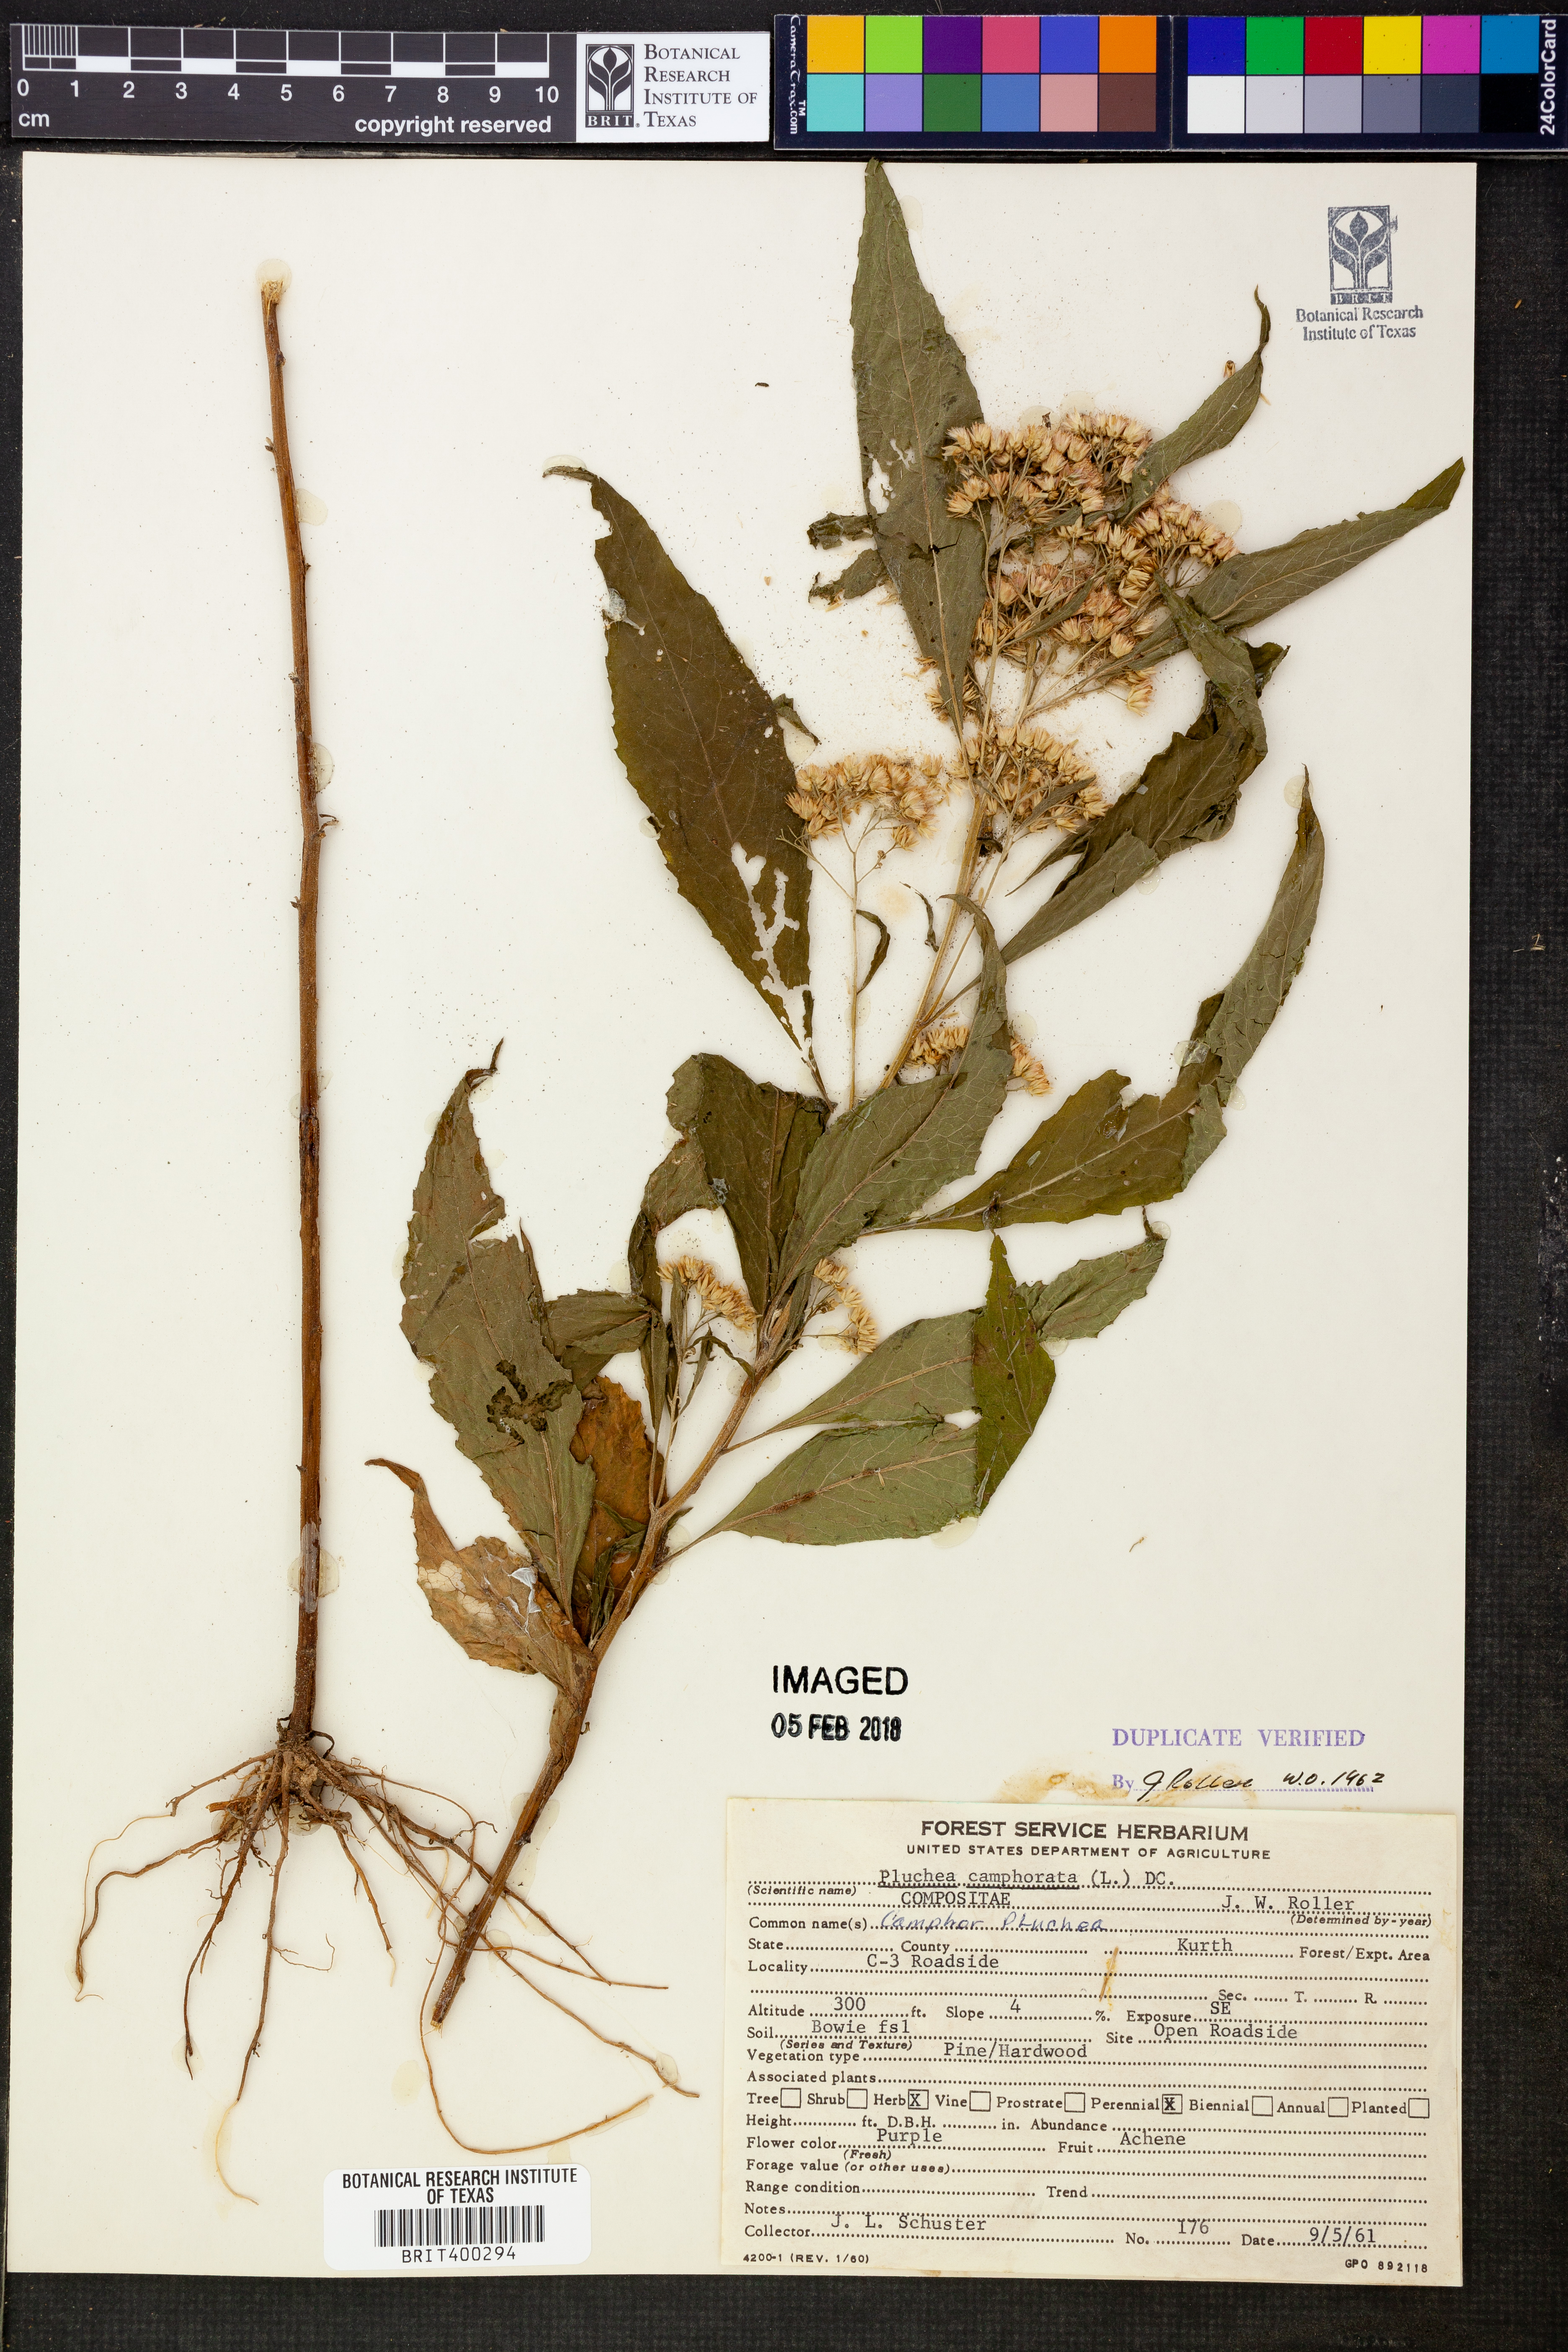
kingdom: Plantae
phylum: Tracheophyta
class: Magnoliopsida
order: Asterales
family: Asteraceae
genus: Pluchea
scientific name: Pluchea camphorata
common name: Camphor pluchea
